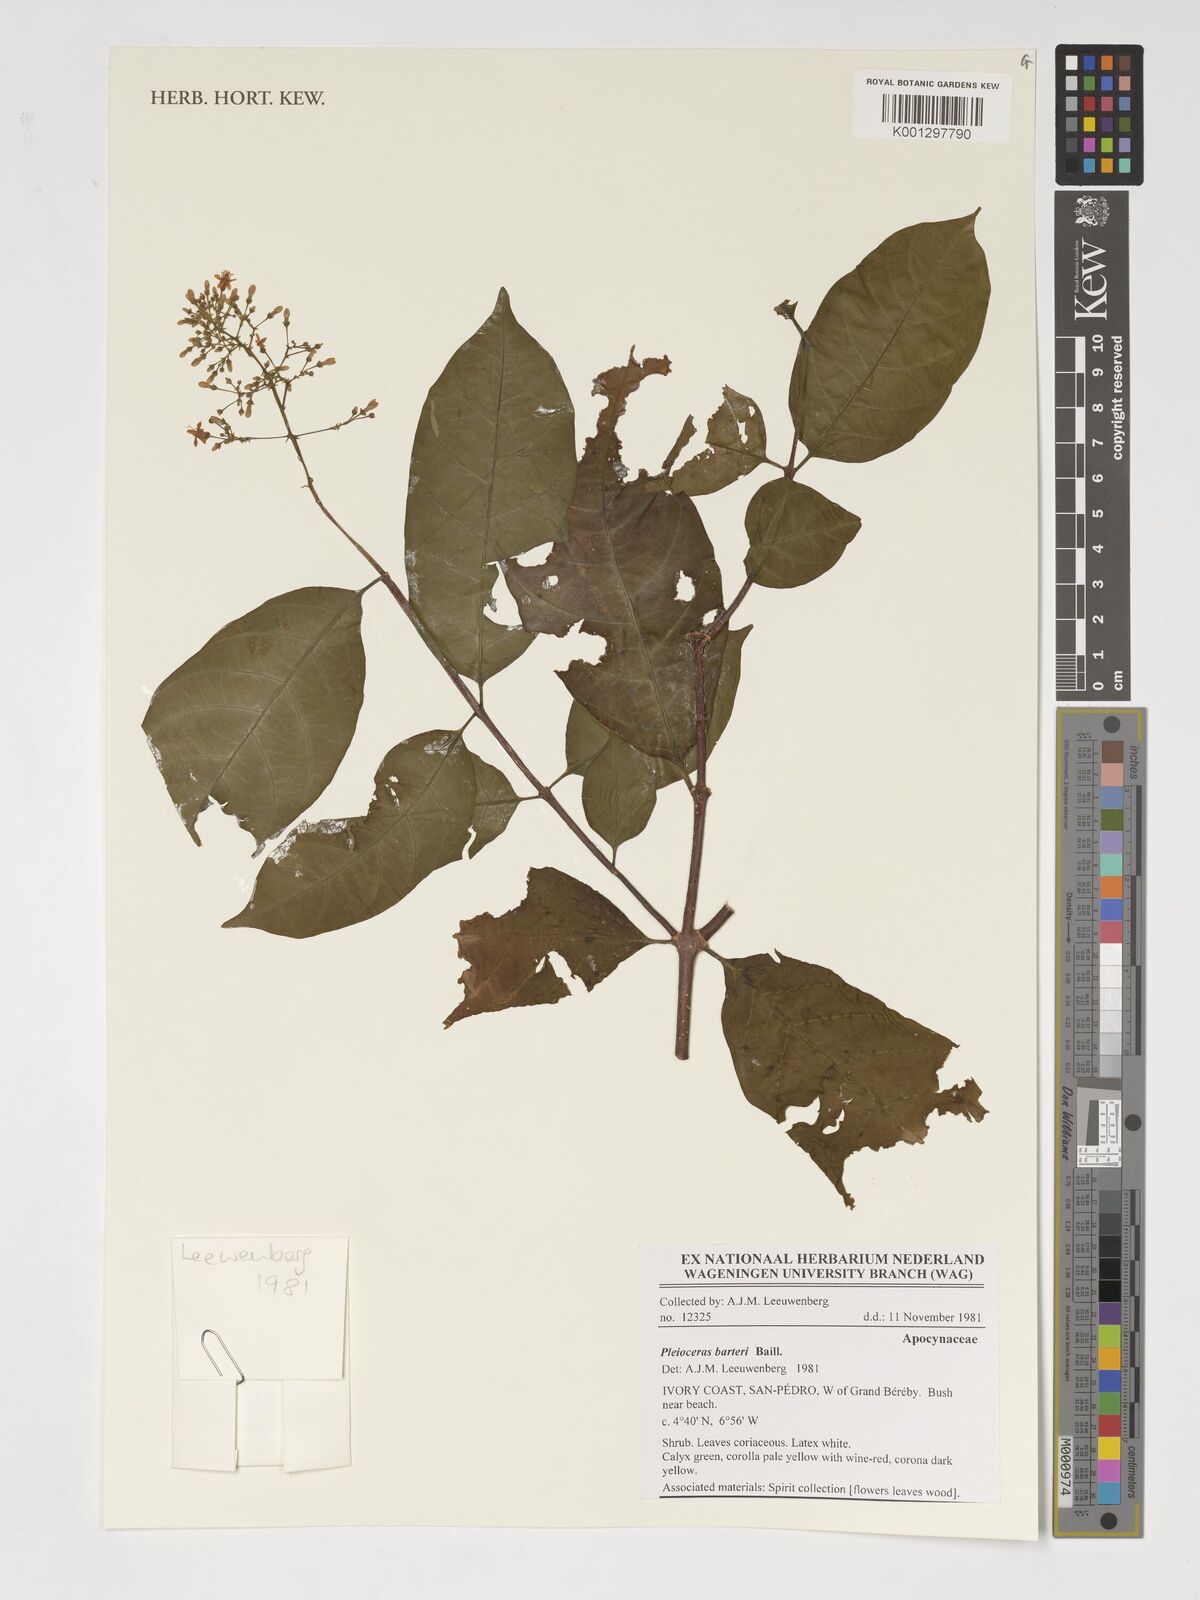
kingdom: Plantae
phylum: Tracheophyta
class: Magnoliopsida
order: Gentianales
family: Apocynaceae
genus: Pleioceras
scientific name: Pleioceras barteri
